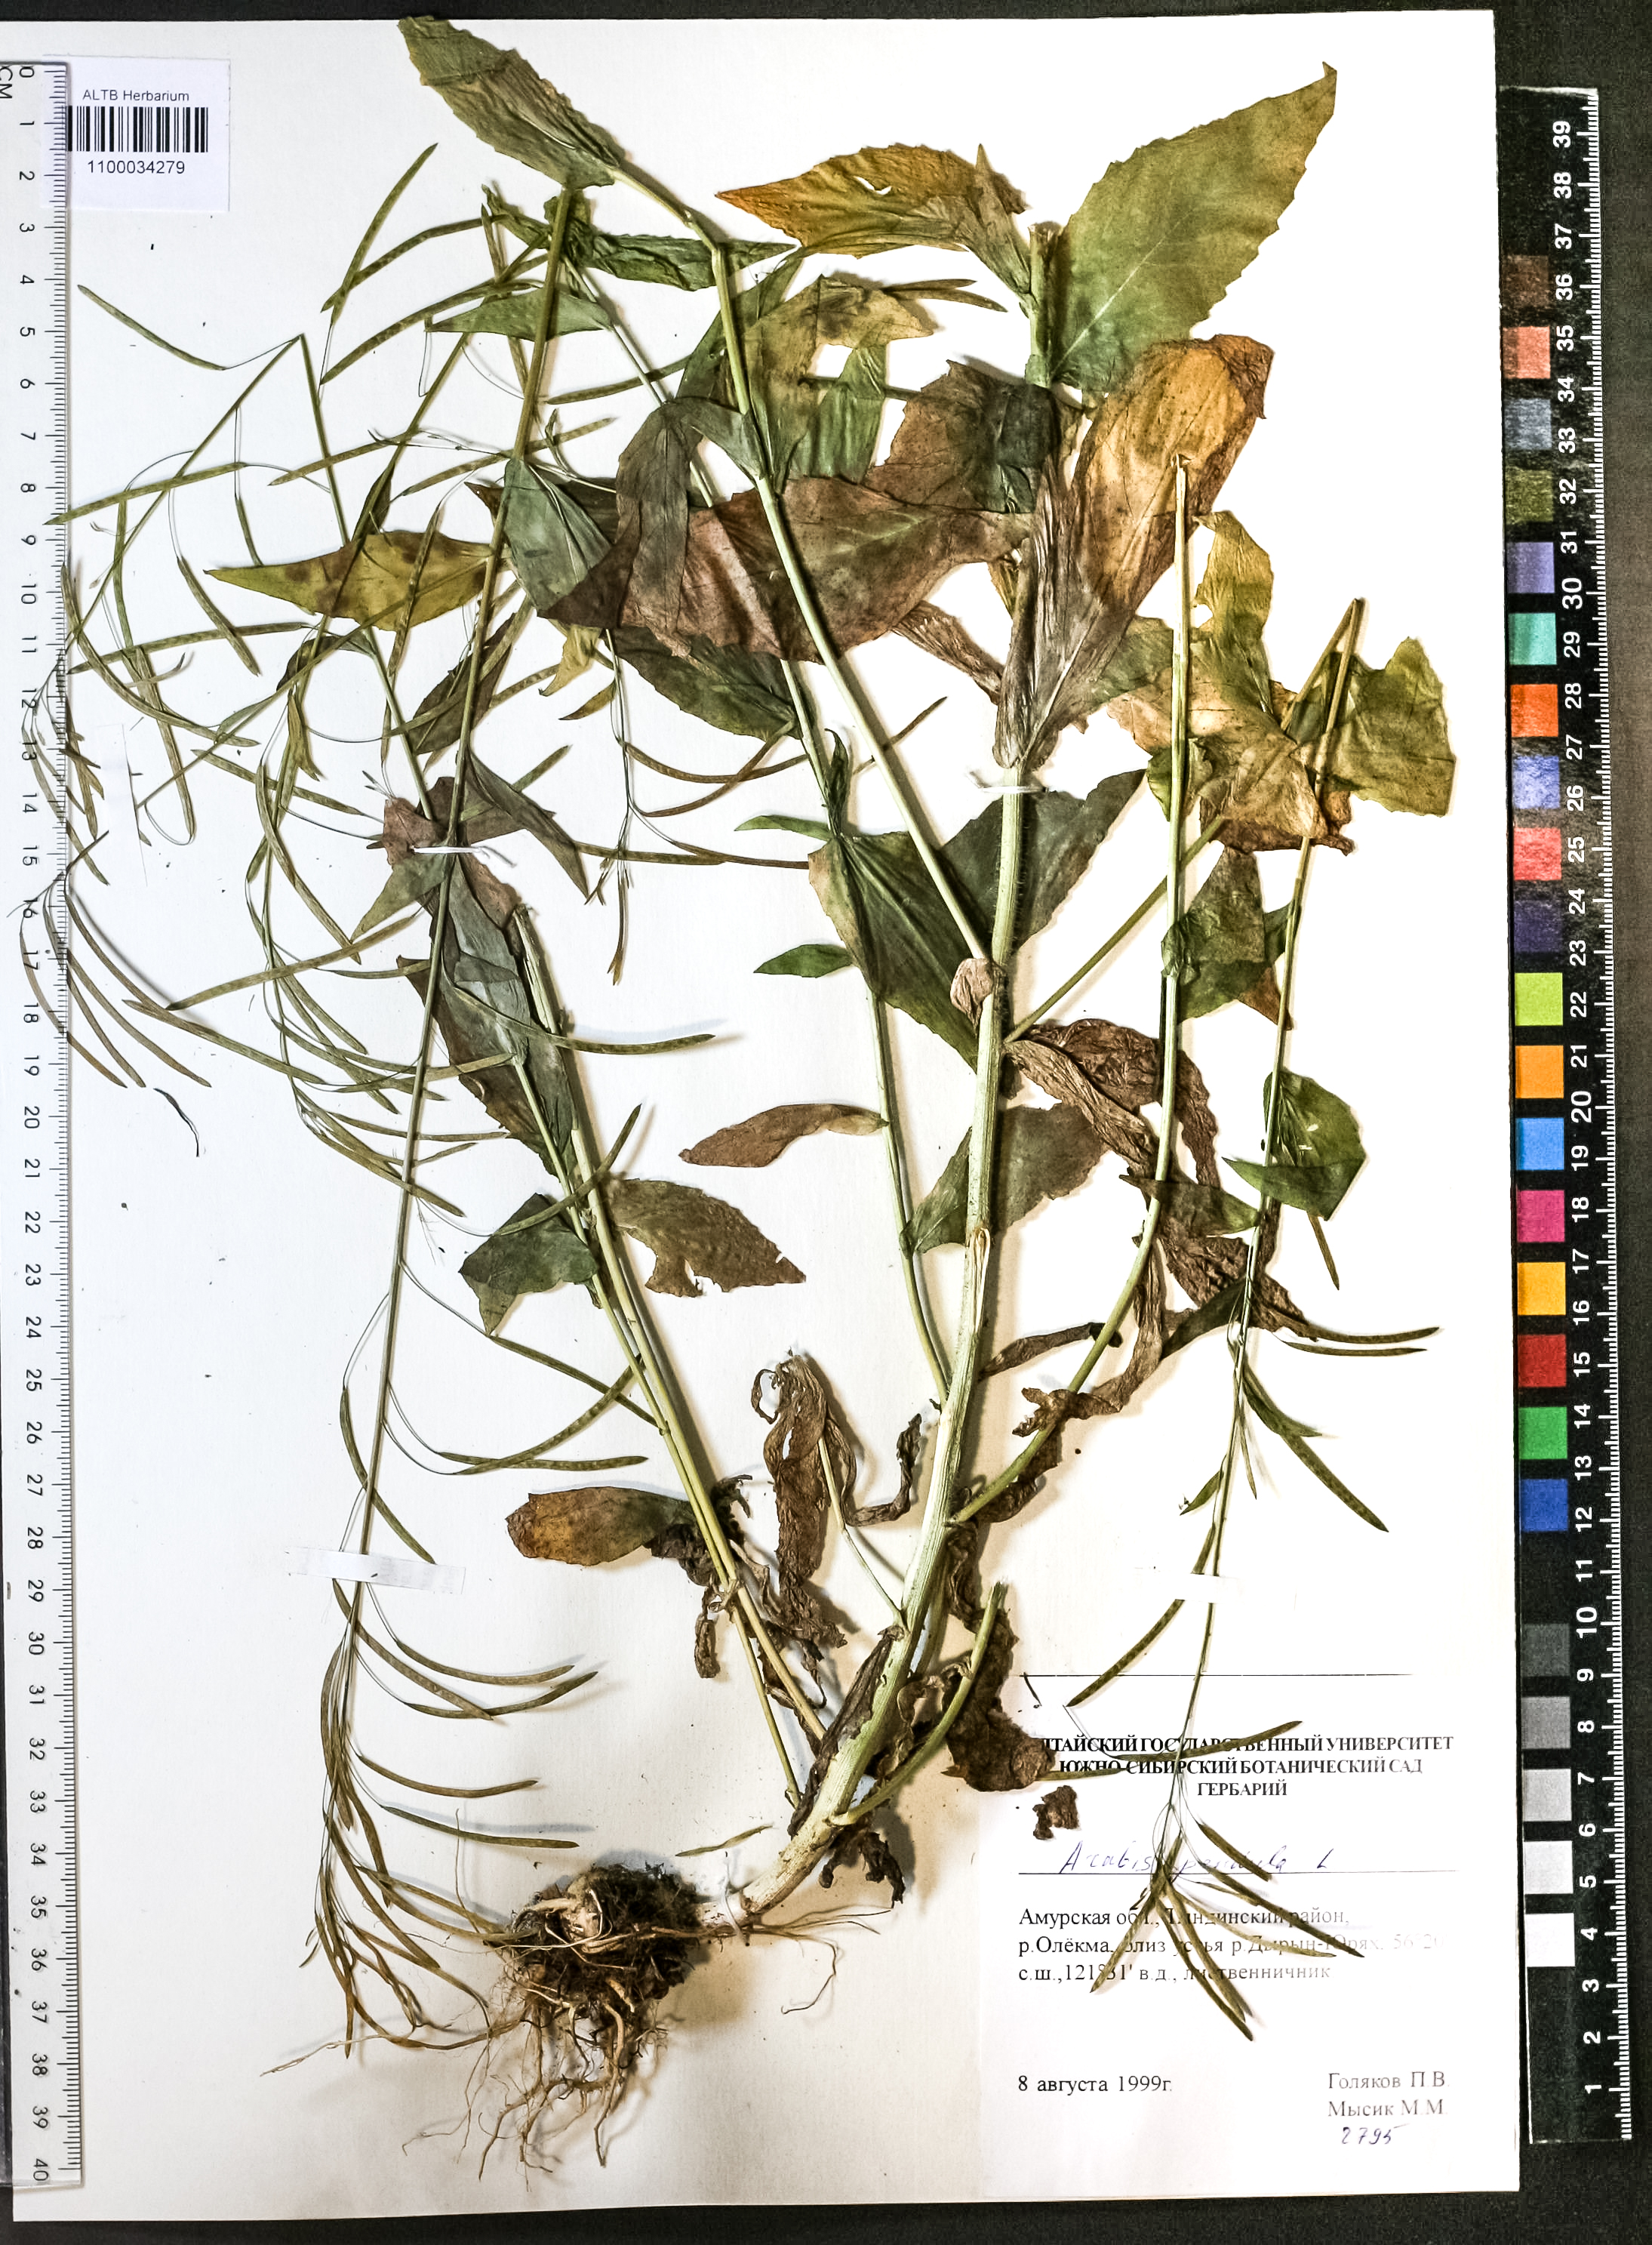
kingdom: Plantae
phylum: Tracheophyta
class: Magnoliopsida
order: Brassicales
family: Brassicaceae
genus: Catolobus
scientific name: Catolobus pendulus
